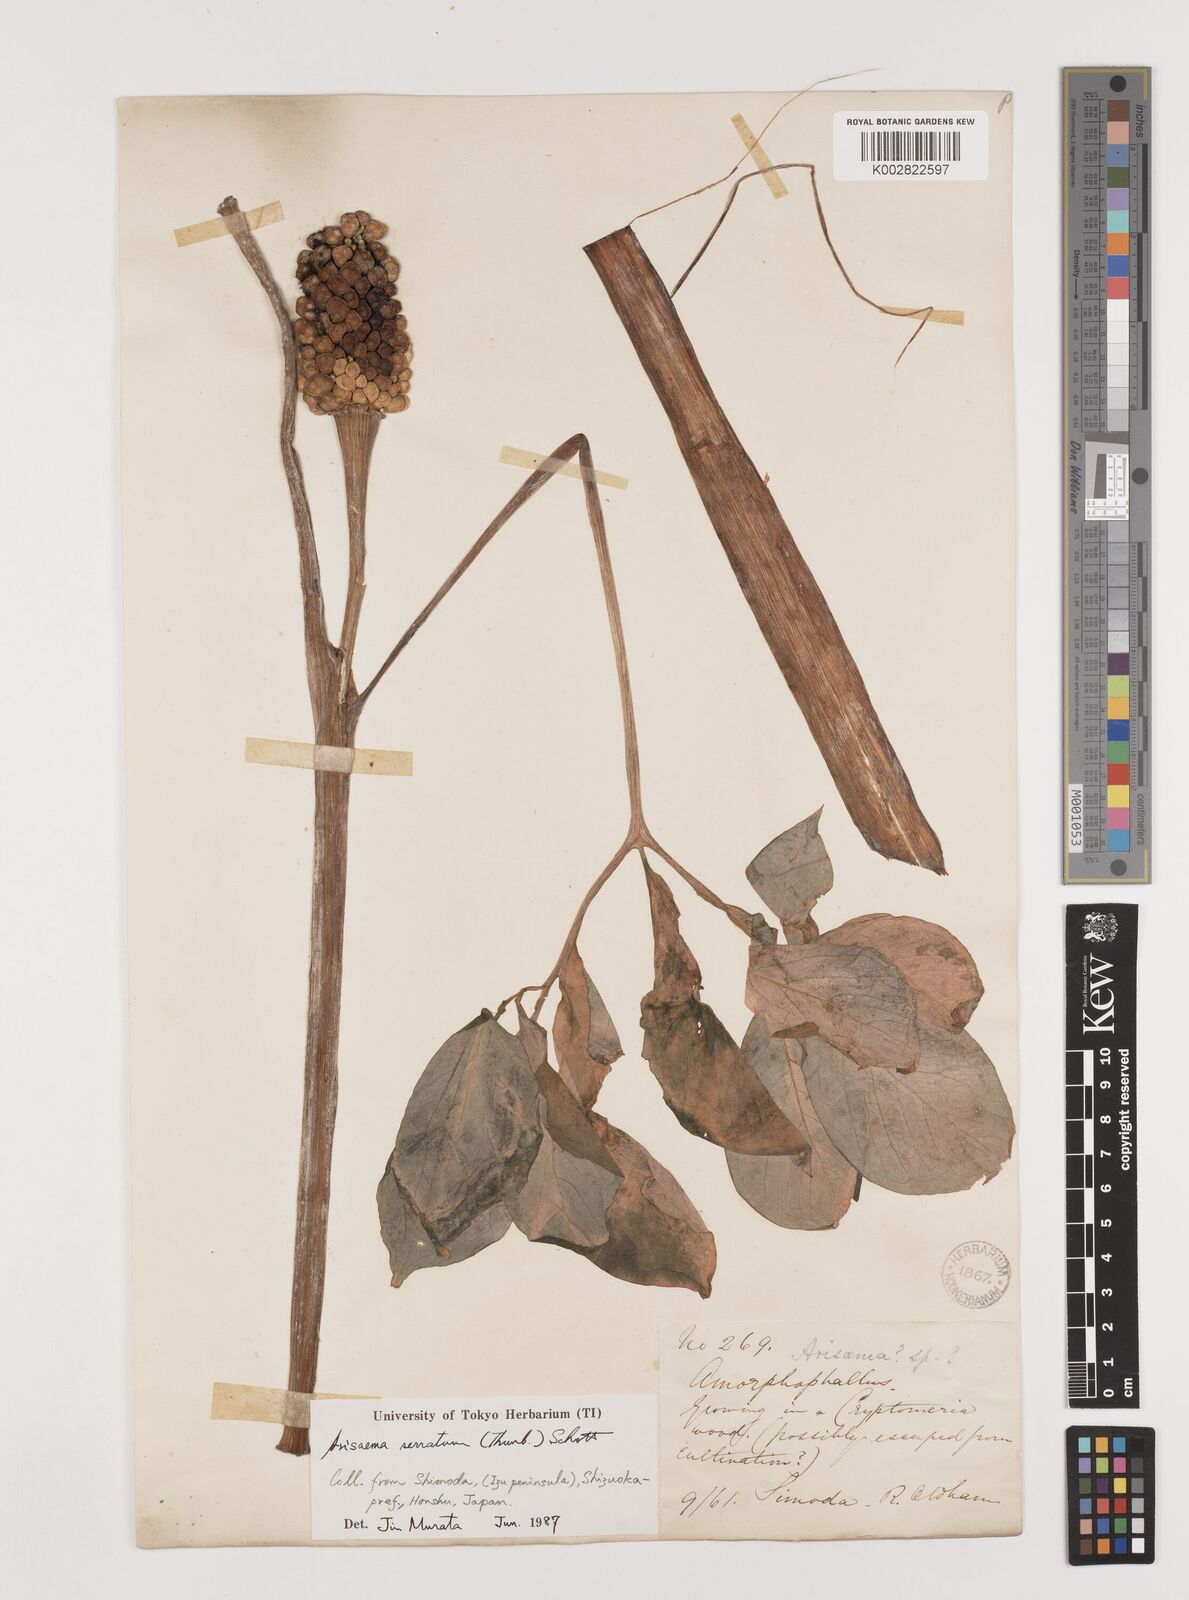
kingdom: Plantae
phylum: Tracheophyta
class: Liliopsida
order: Alismatales
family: Araceae
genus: Arisaema
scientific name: Arisaema serratum
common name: Japanese arisaema
